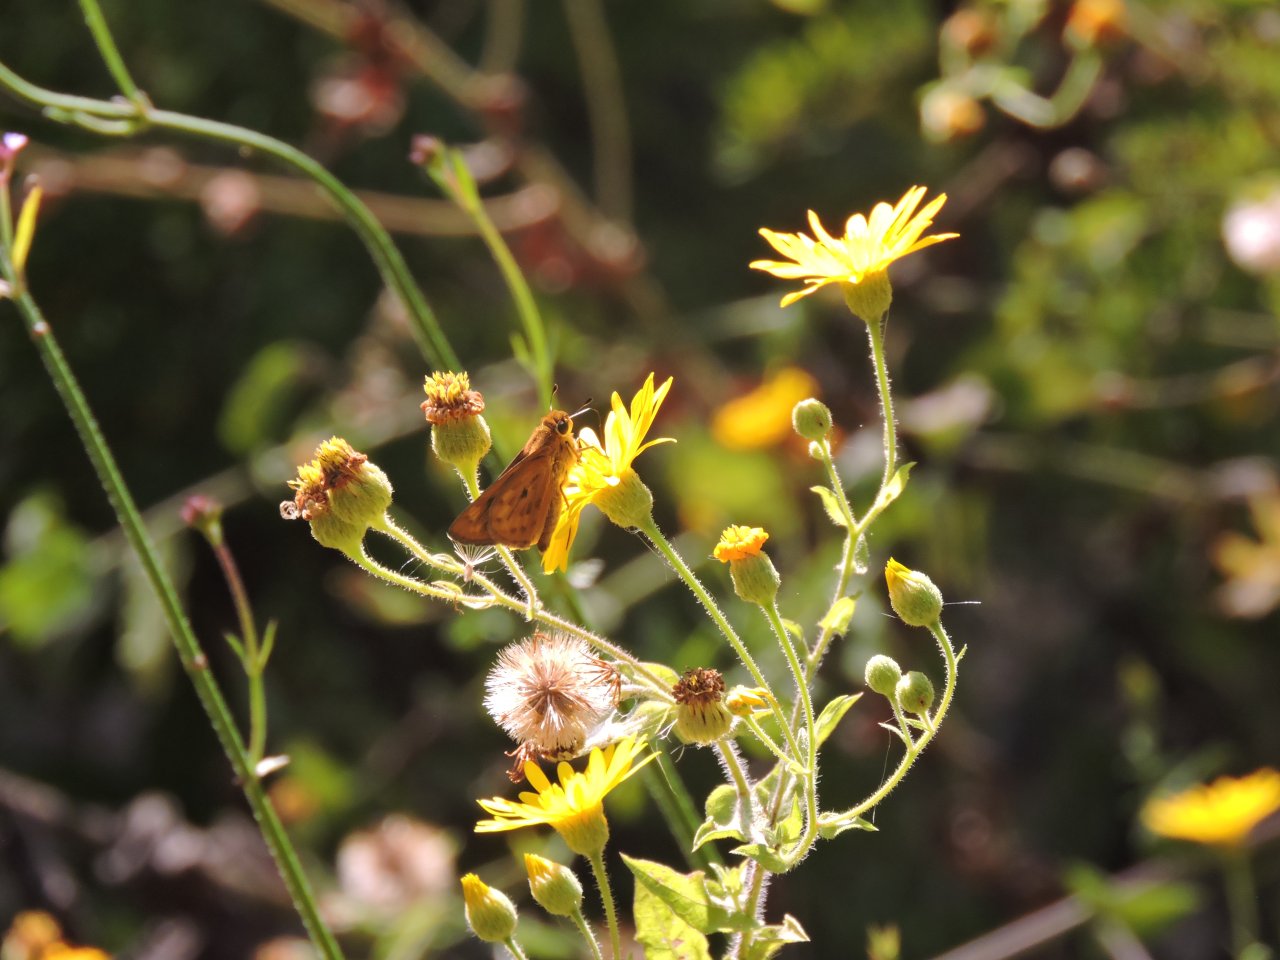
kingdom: Animalia
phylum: Arthropoda
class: Insecta
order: Lepidoptera
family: Hesperiidae
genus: Hylephila
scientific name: Hylephila phyleus
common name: Fiery Skipper
